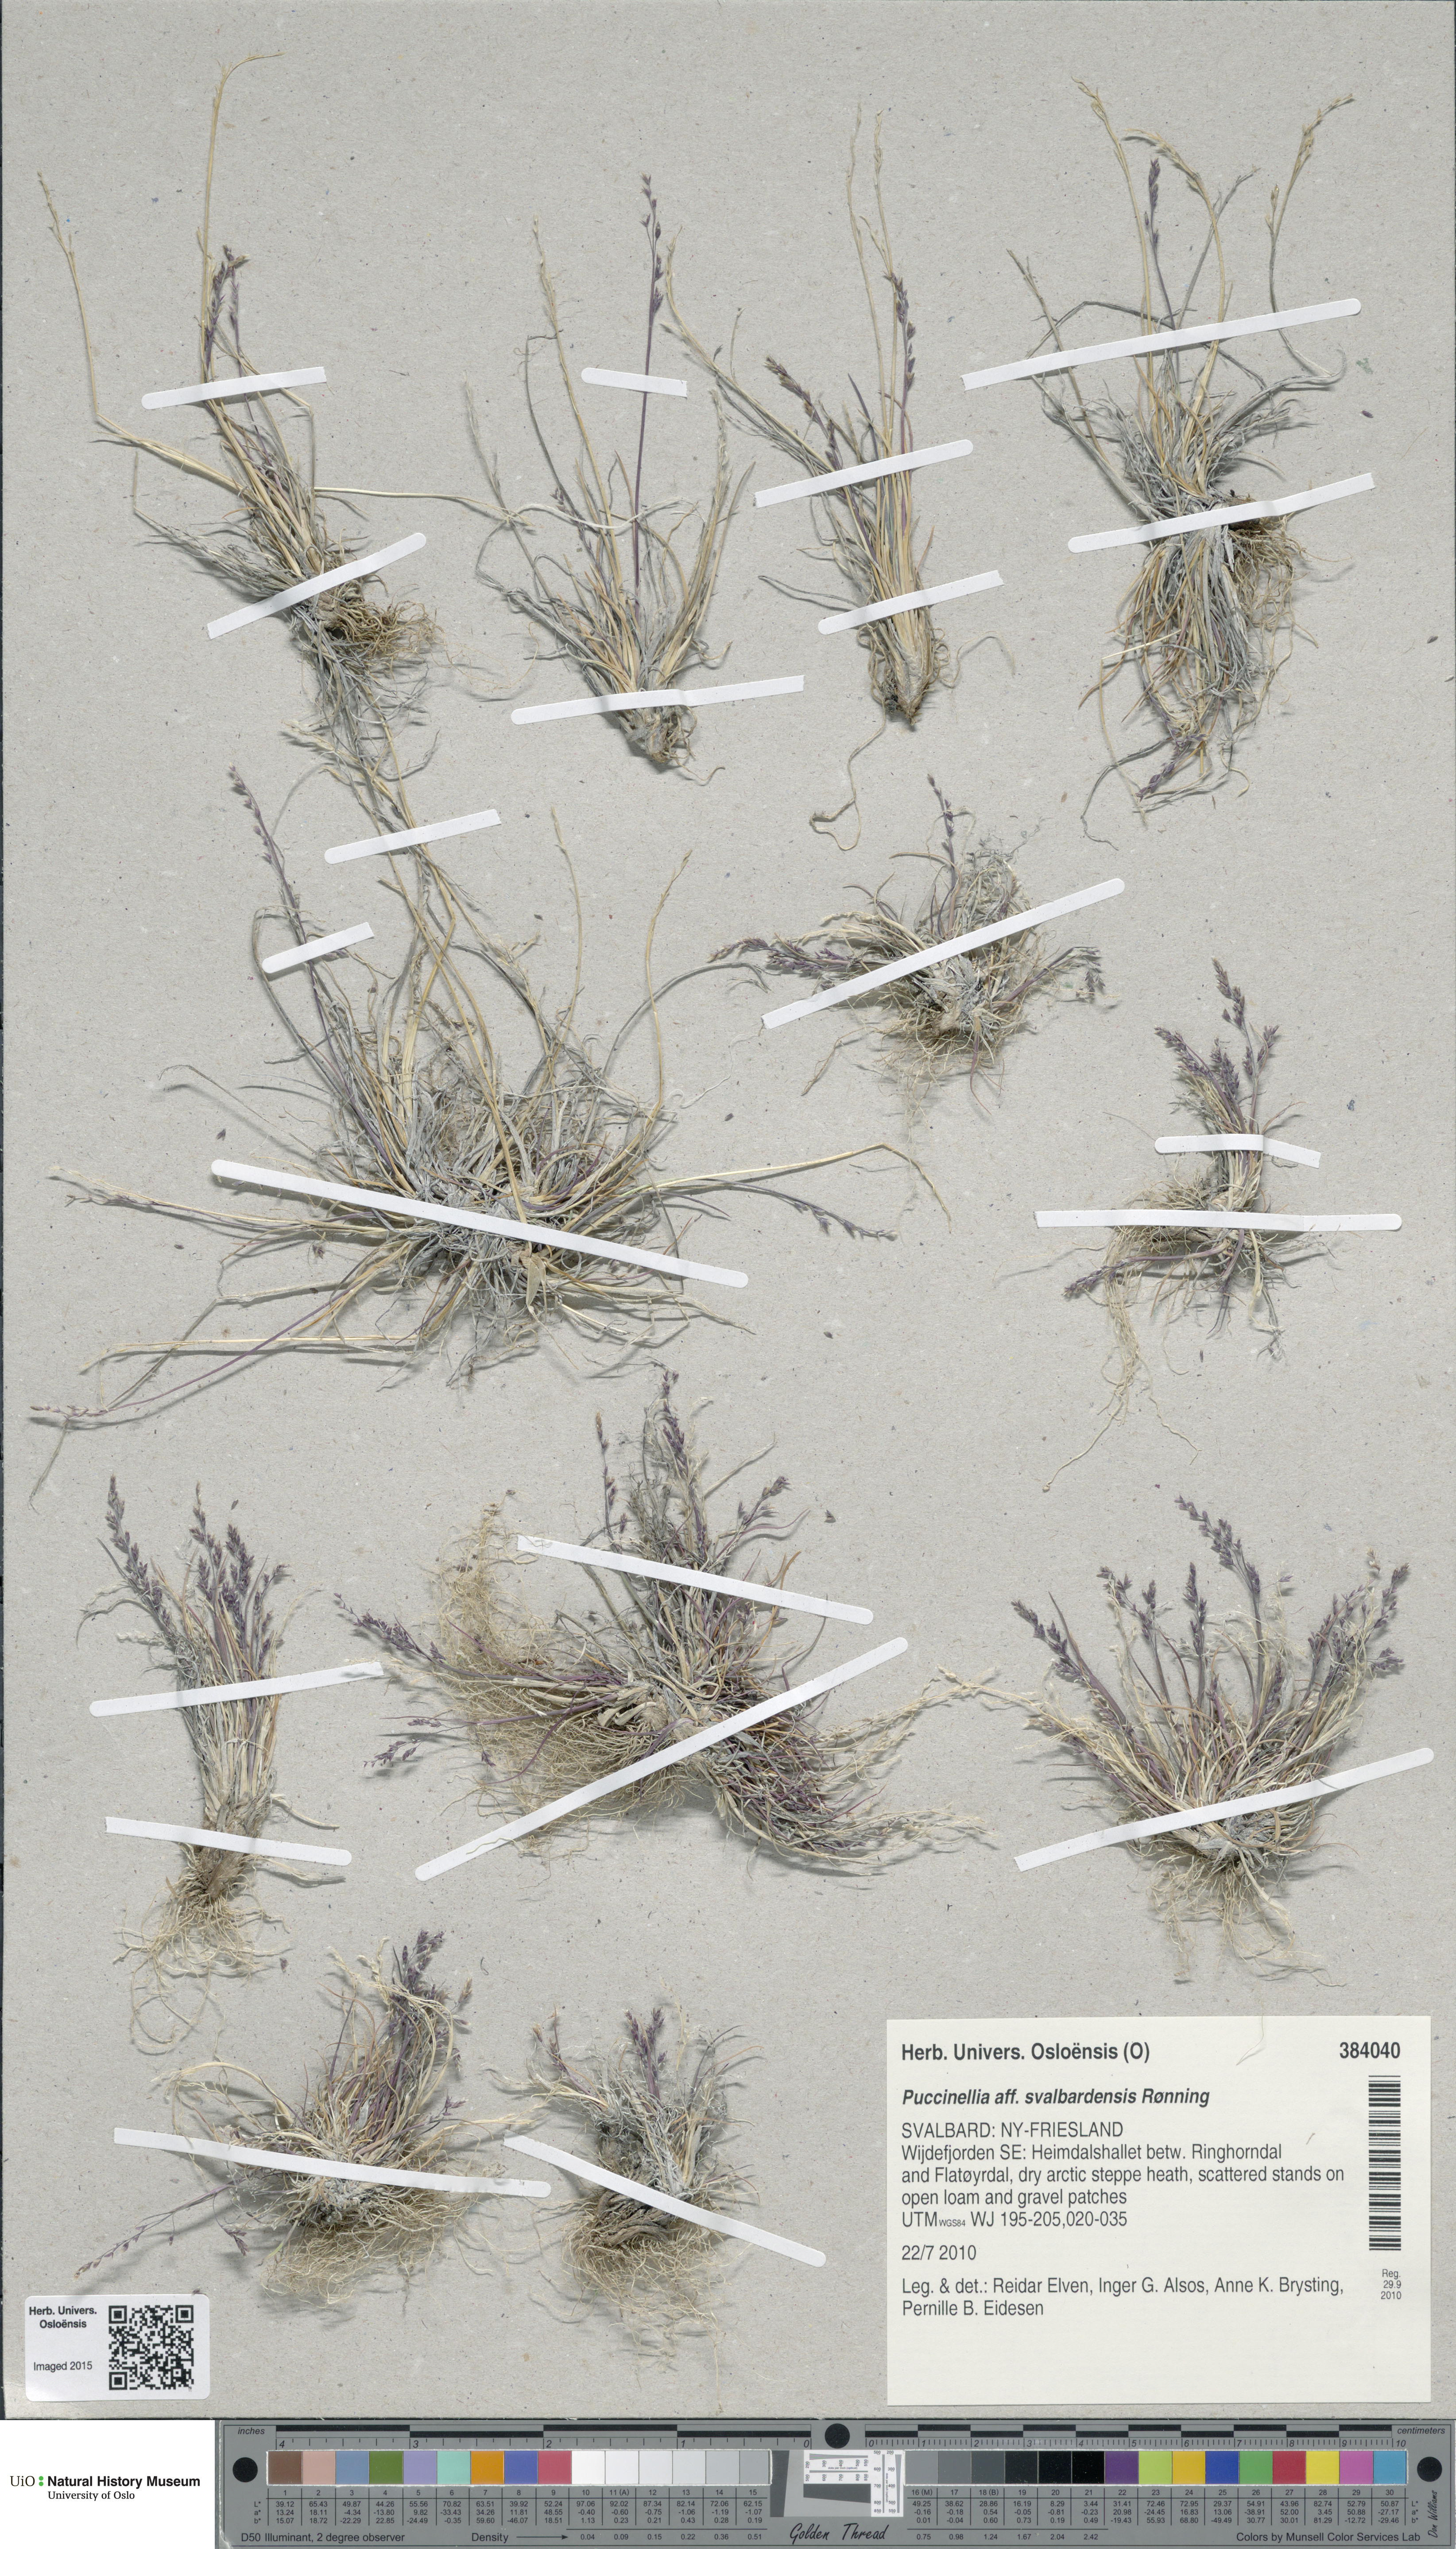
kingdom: Plantae
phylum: Tracheophyta
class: Liliopsida
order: Poales
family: Poaceae
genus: Puccinellia
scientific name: Puccinellia tenella
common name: Tundra alkaligrass
